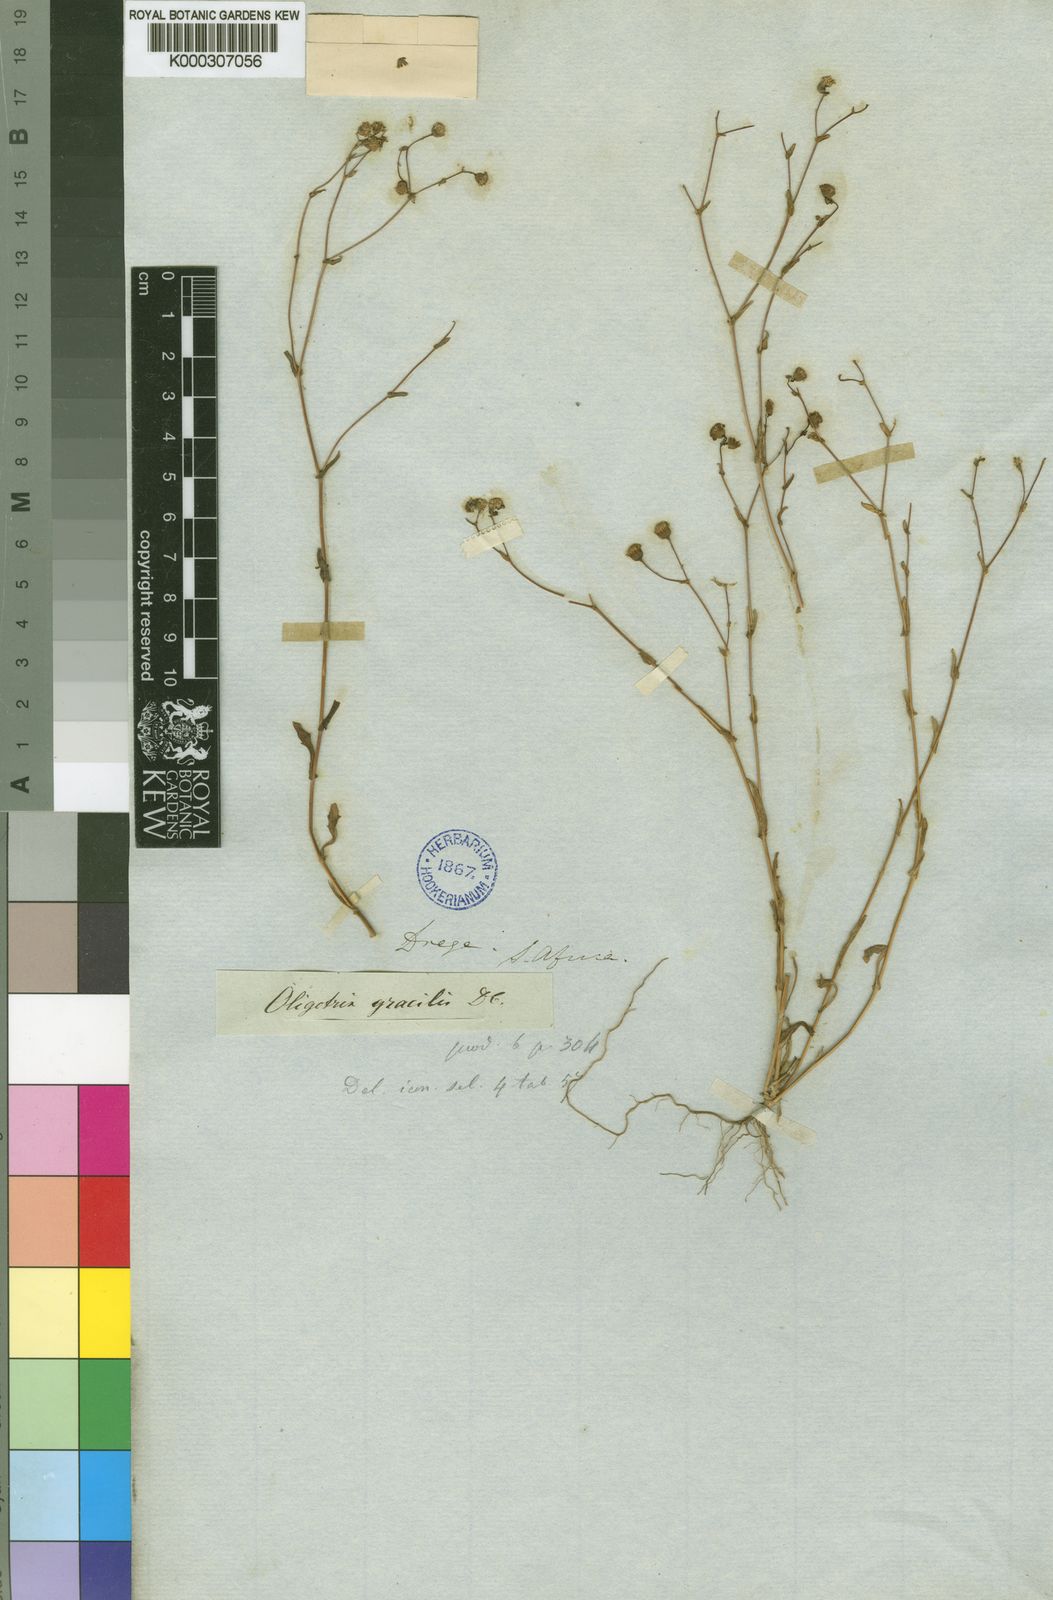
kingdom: Plantae
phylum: Tracheophyta
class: Magnoliopsida
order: Asterales
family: Asteraceae
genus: Oligothrix
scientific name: Oligothrix gracilis
